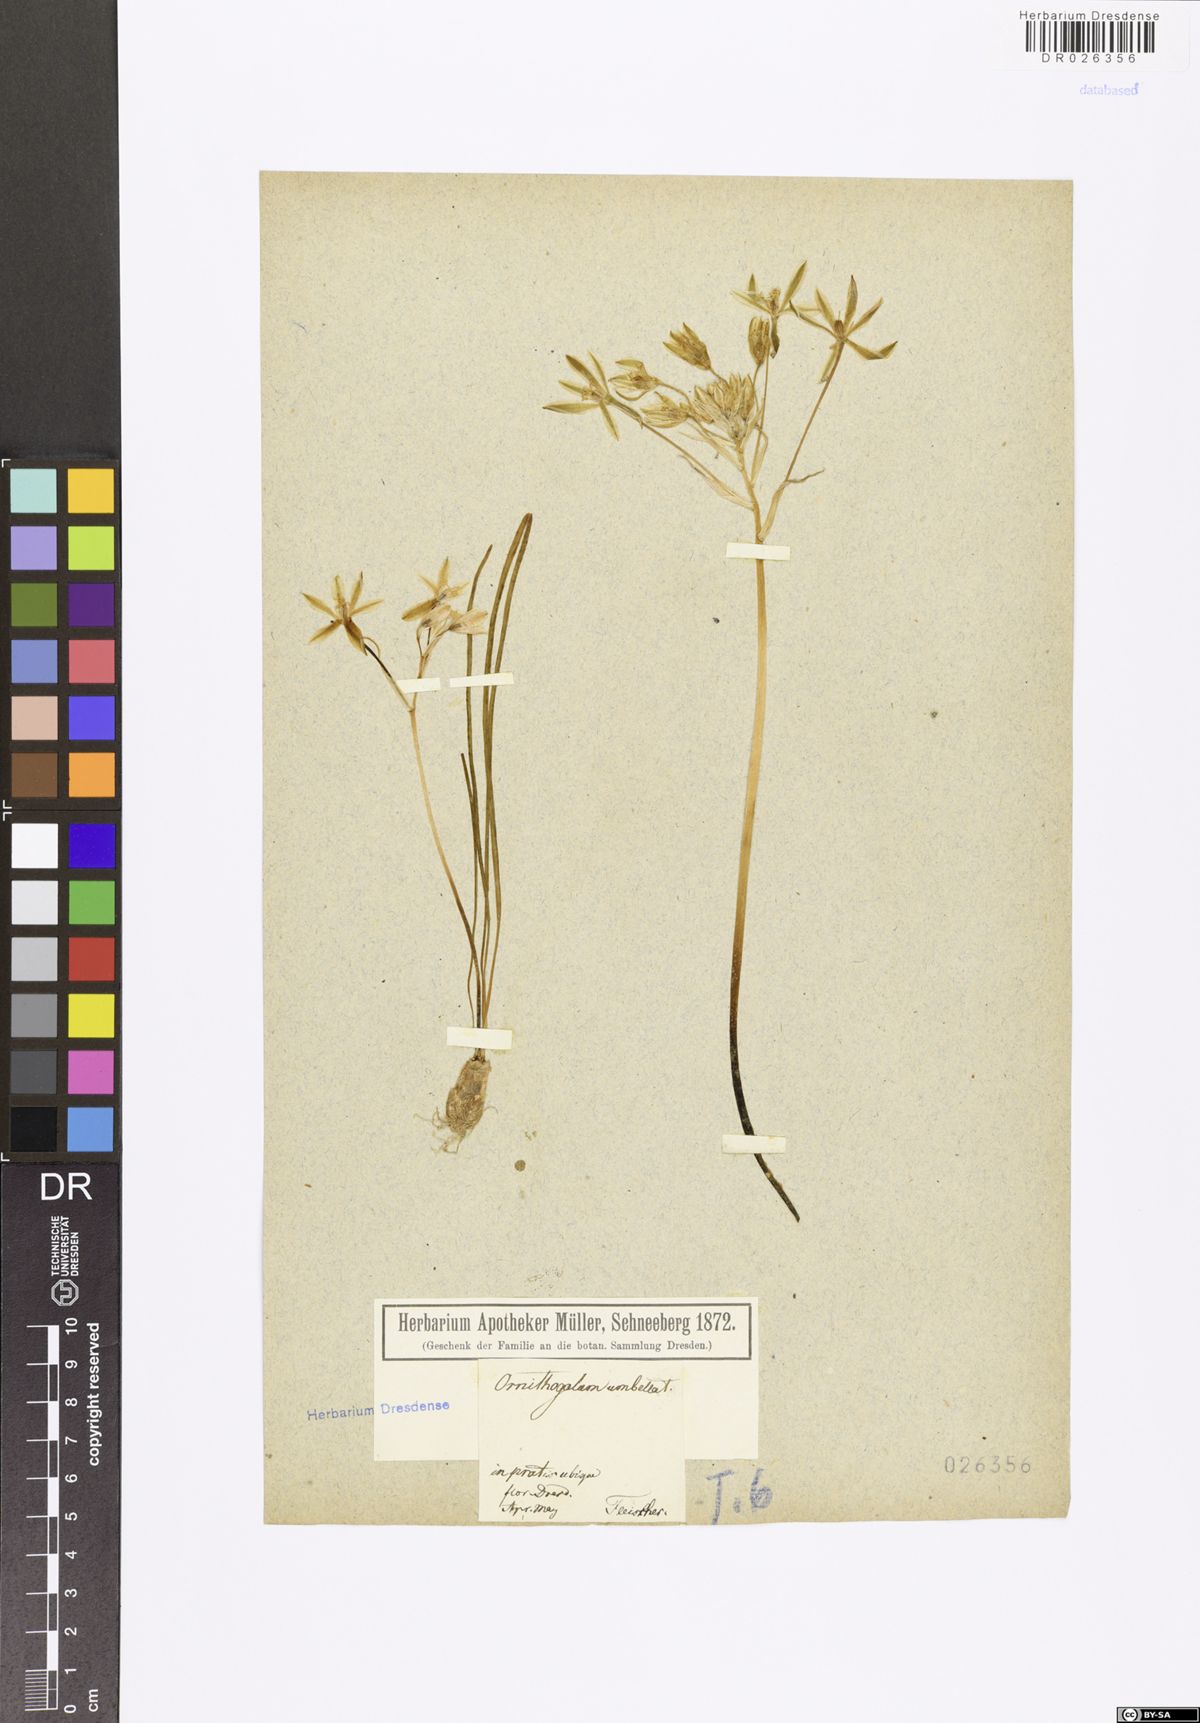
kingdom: Plantae
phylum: Tracheophyta
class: Liliopsida
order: Asparagales
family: Asparagaceae
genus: Ornithogalum
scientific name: Ornithogalum umbellatum
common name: Garden star-of-bethlehem
